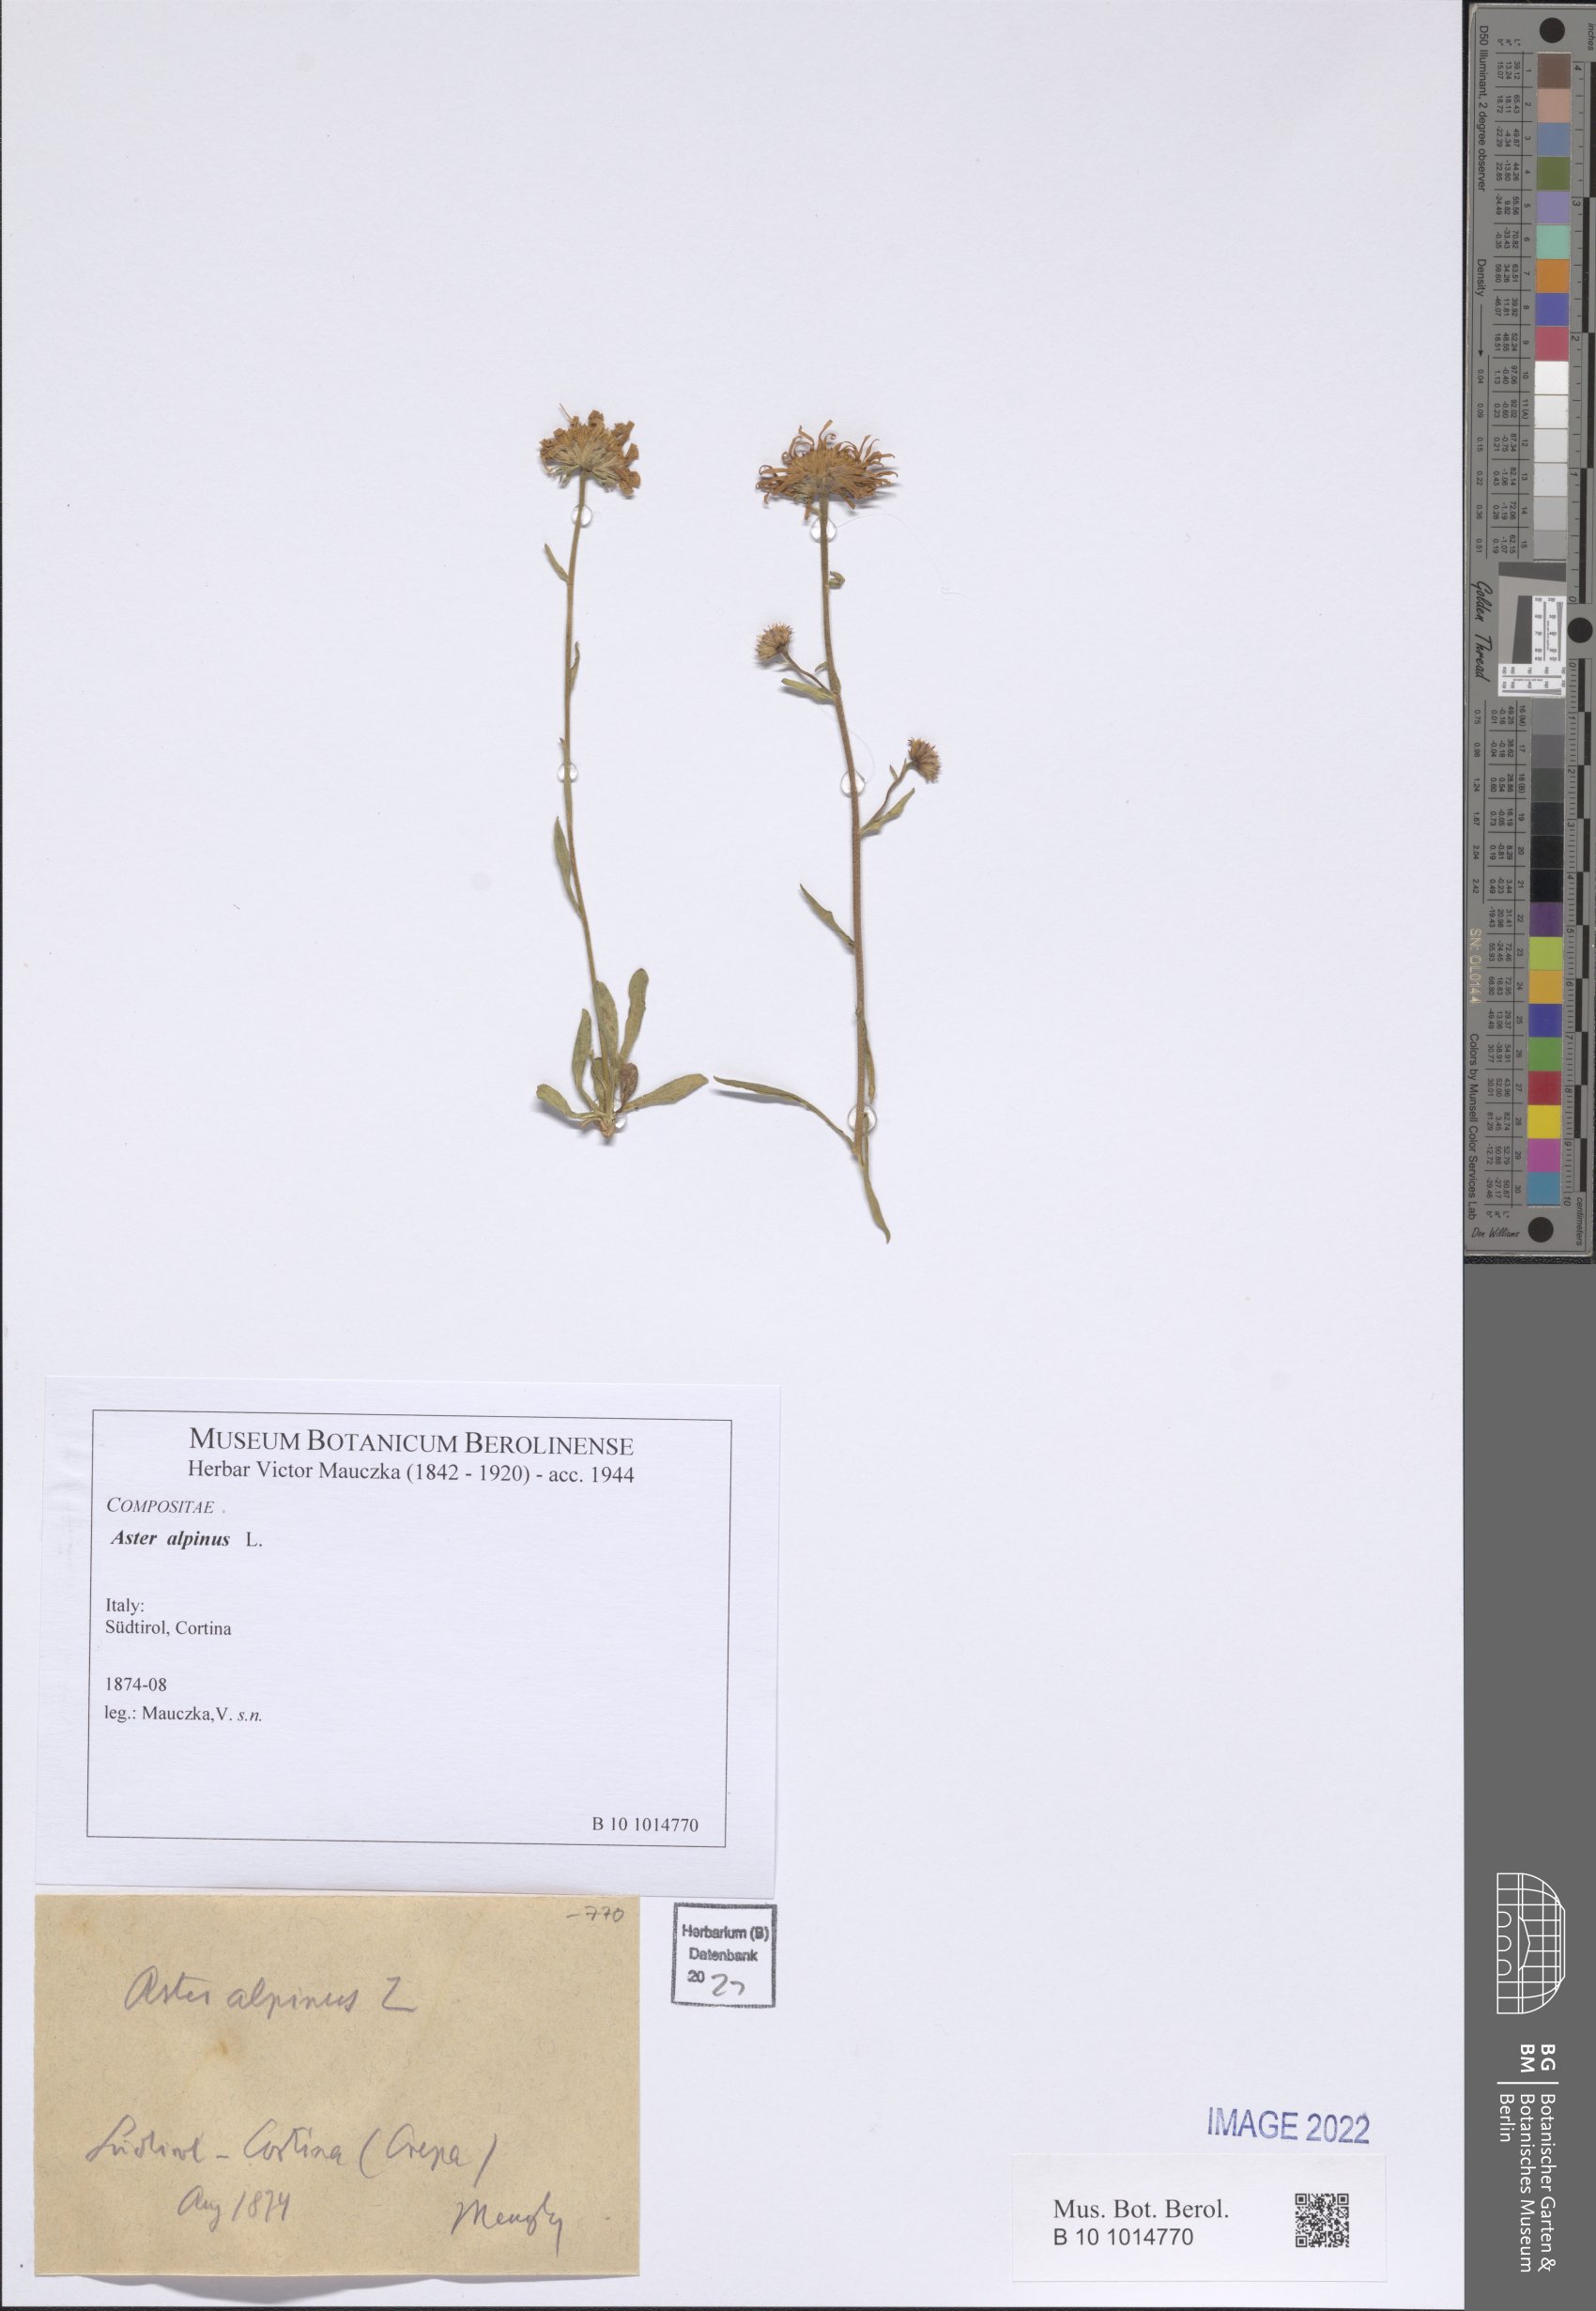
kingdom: Plantae
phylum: Tracheophyta
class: Magnoliopsida
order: Asterales
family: Asteraceae
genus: Aster
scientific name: Aster alpinus
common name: Alpine aster
